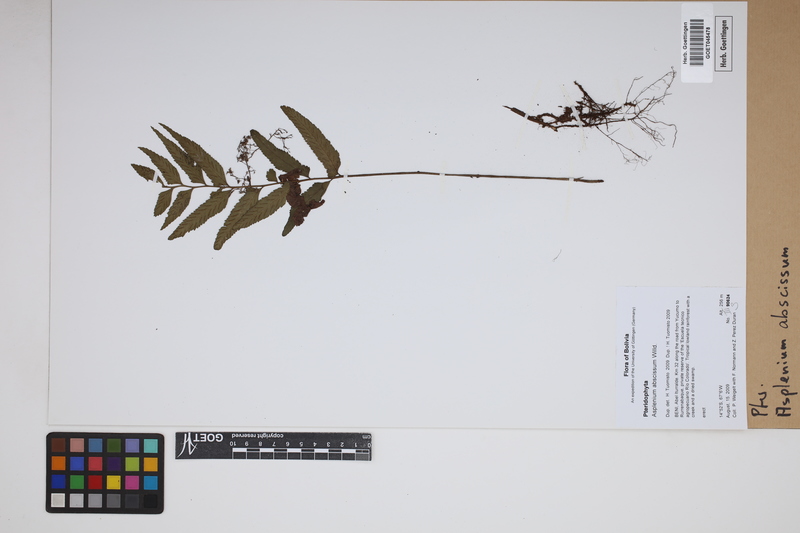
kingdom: Plantae
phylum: Tracheophyta
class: Polypodiopsida
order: Polypodiales
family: Aspleniaceae
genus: Asplenium
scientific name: Asplenium abscissum
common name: Cutleaf spleenwort
